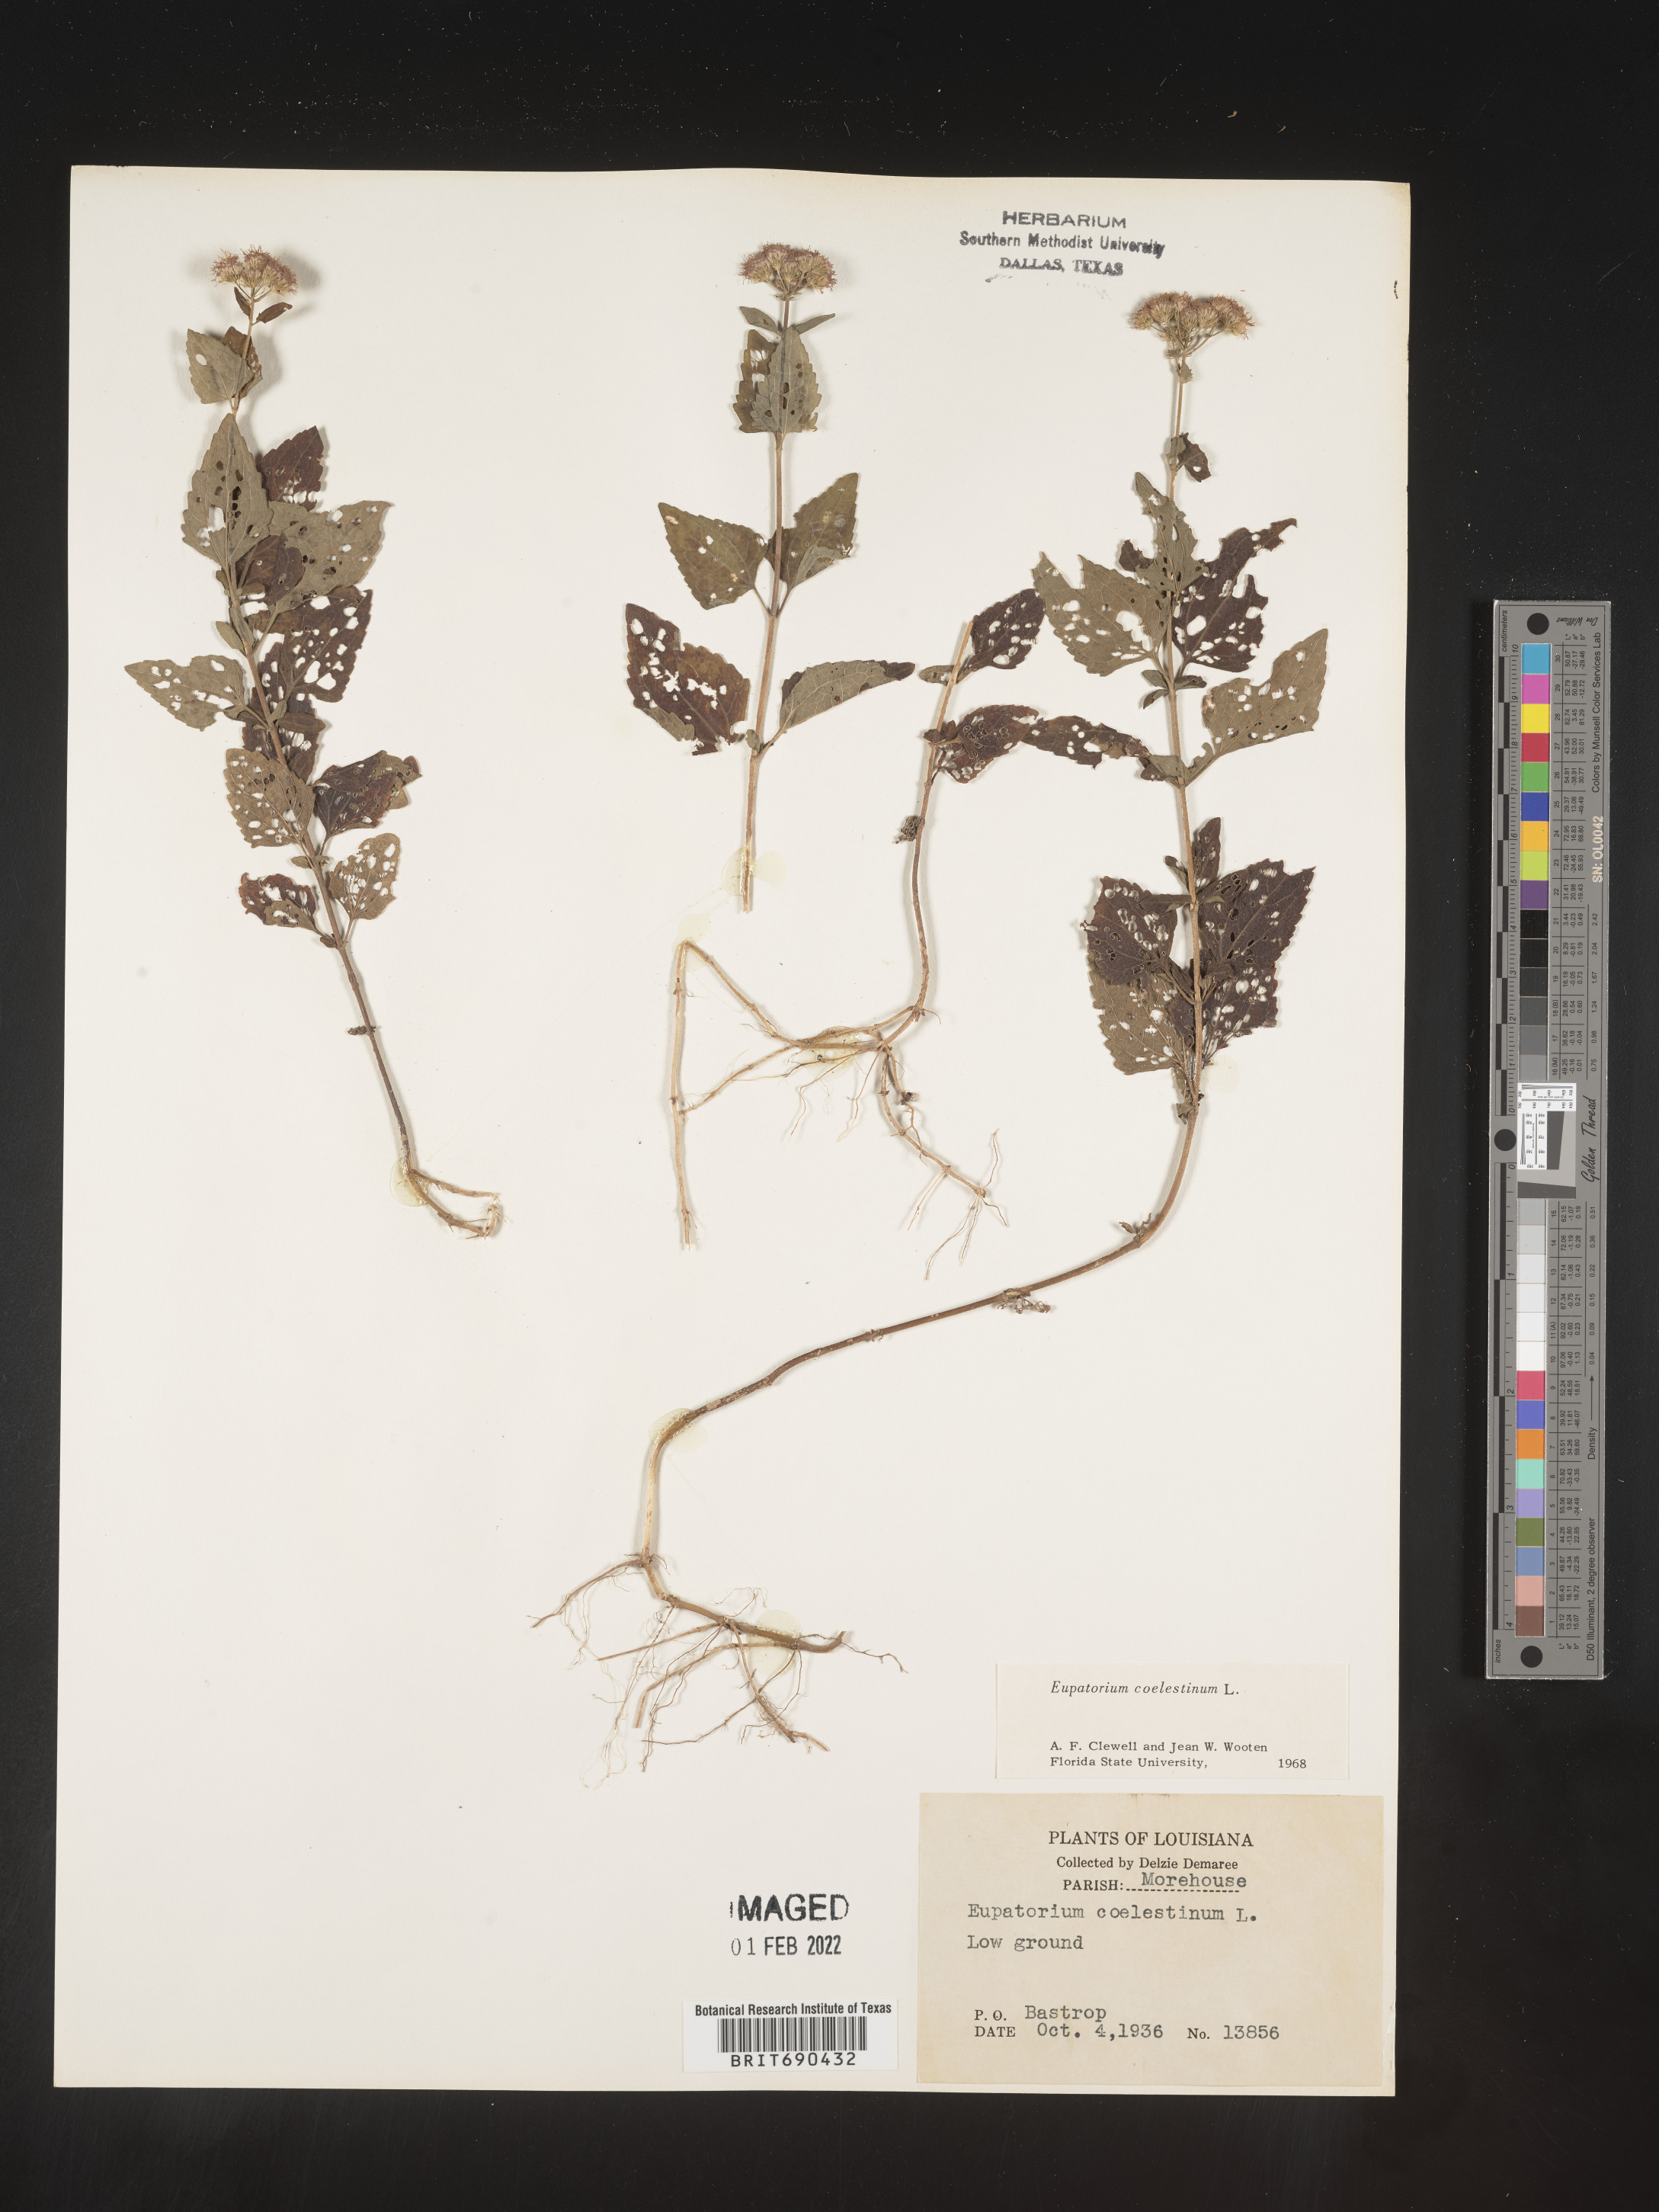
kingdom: Plantae
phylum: Tracheophyta
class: Magnoliopsida
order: Asterales
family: Asteraceae
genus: Conoclinium
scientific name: Conoclinium coelestinum
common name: Blue mistflower
